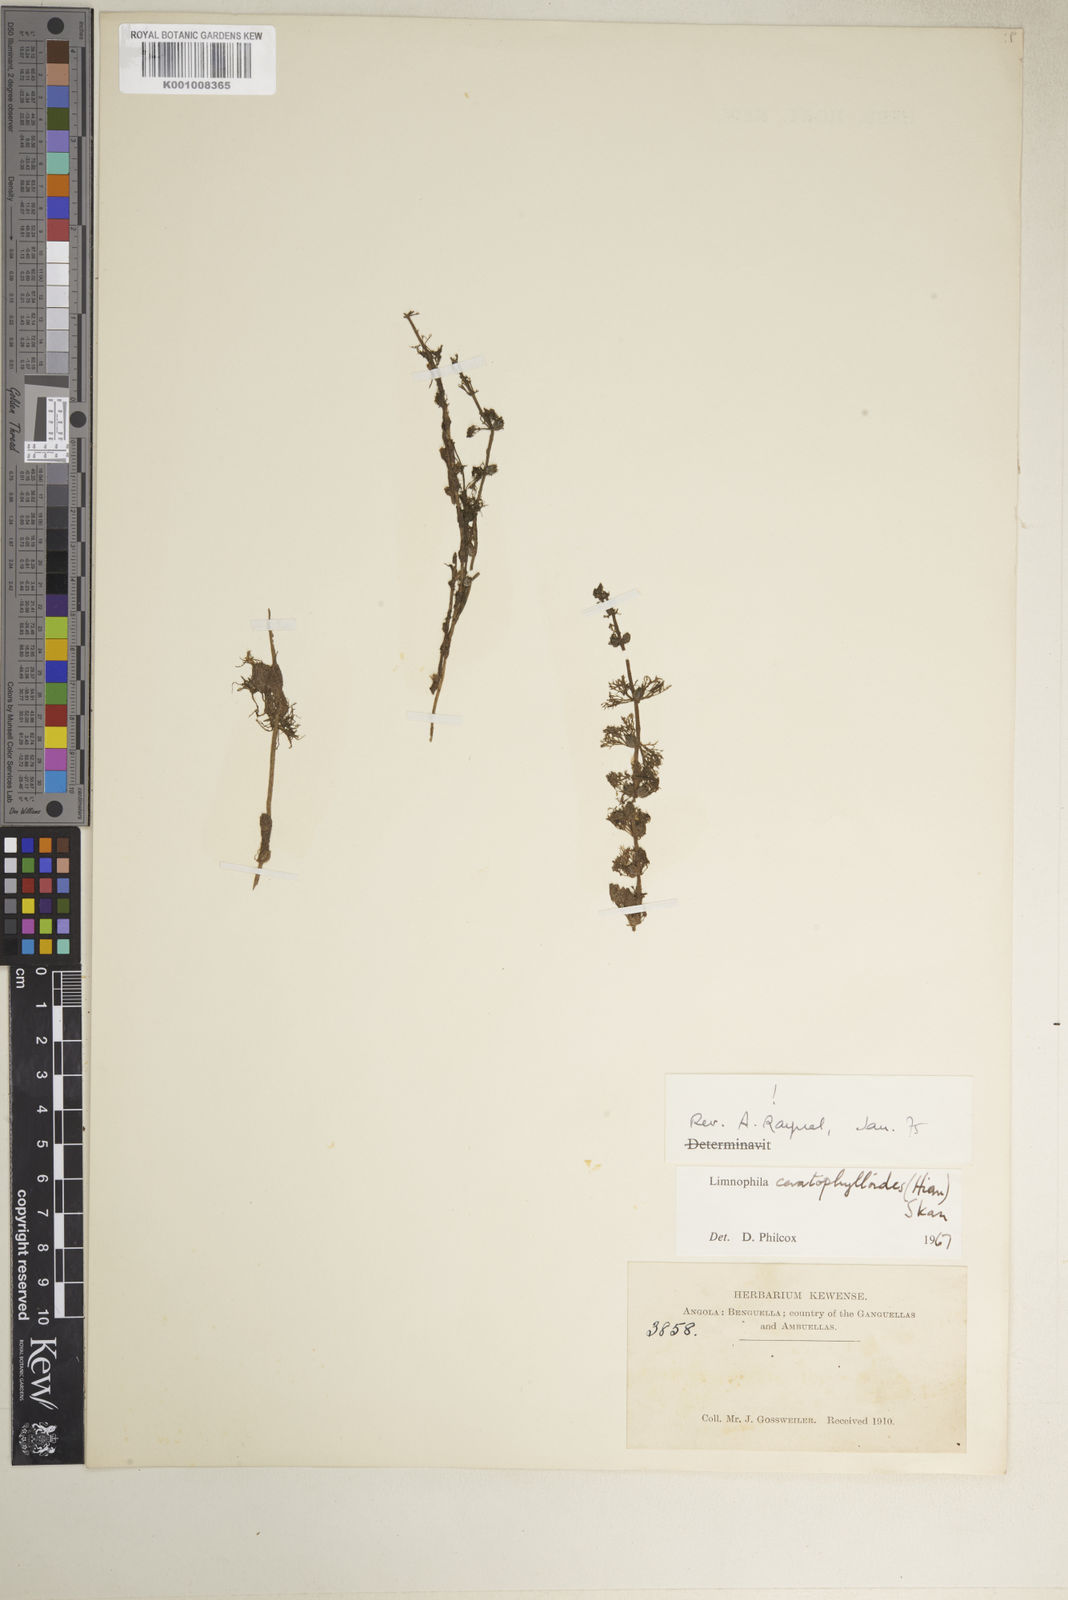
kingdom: Plantae
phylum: Tracheophyta
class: Magnoliopsida
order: Lamiales
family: Plantaginaceae
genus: Limnophila
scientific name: Limnophila ceratophylloides
